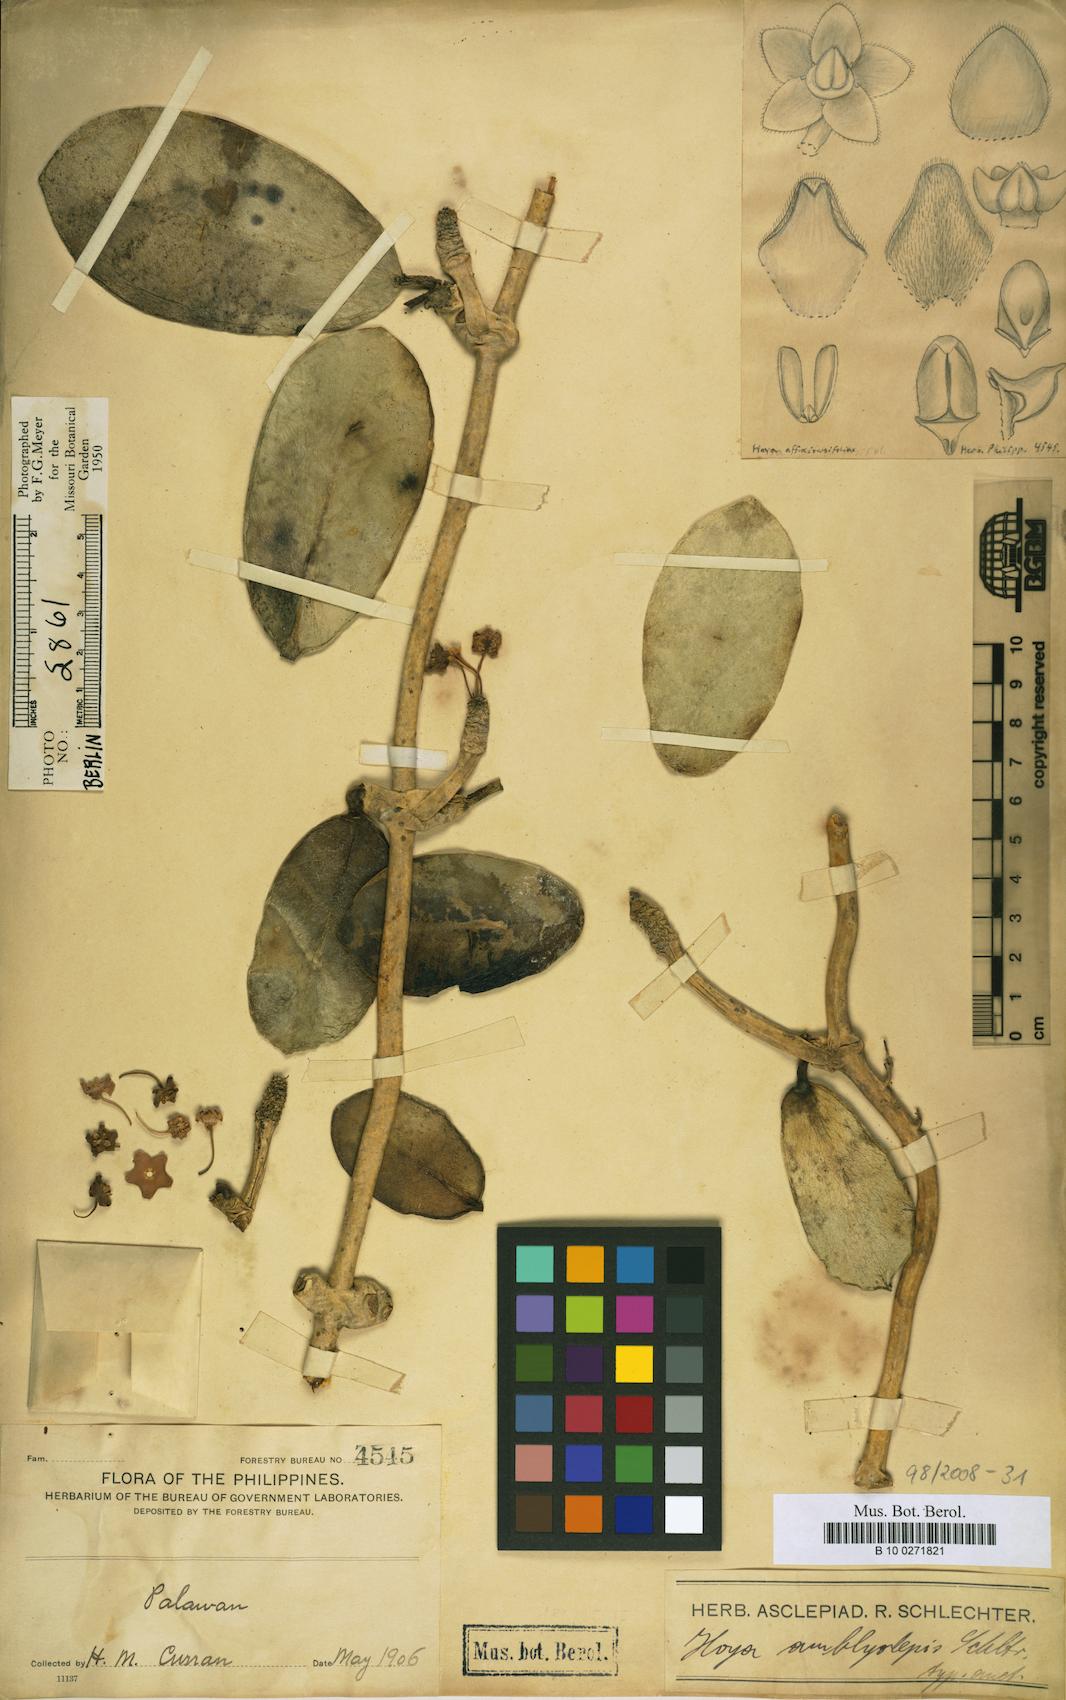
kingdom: Plantae
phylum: Tracheophyta
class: Magnoliopsida
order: Gentianales
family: Apocynaceae
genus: Hoya
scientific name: Hoya
